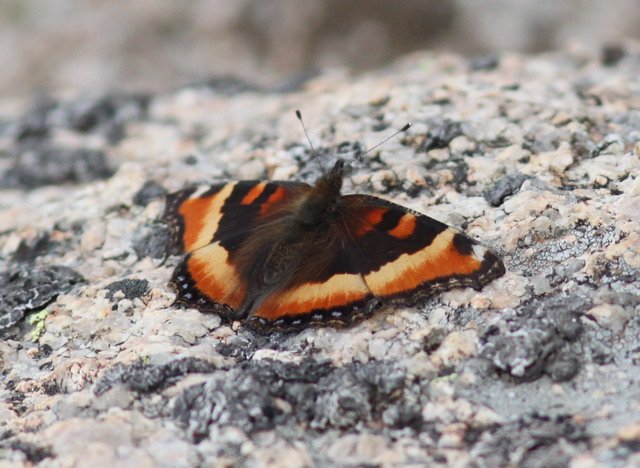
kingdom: Animalia
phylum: Arthropoda
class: Insecta
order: Lepidoptera
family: Nymphalidae
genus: Aglais
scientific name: Aglais milberti
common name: Milbert's Tortoiseshell
